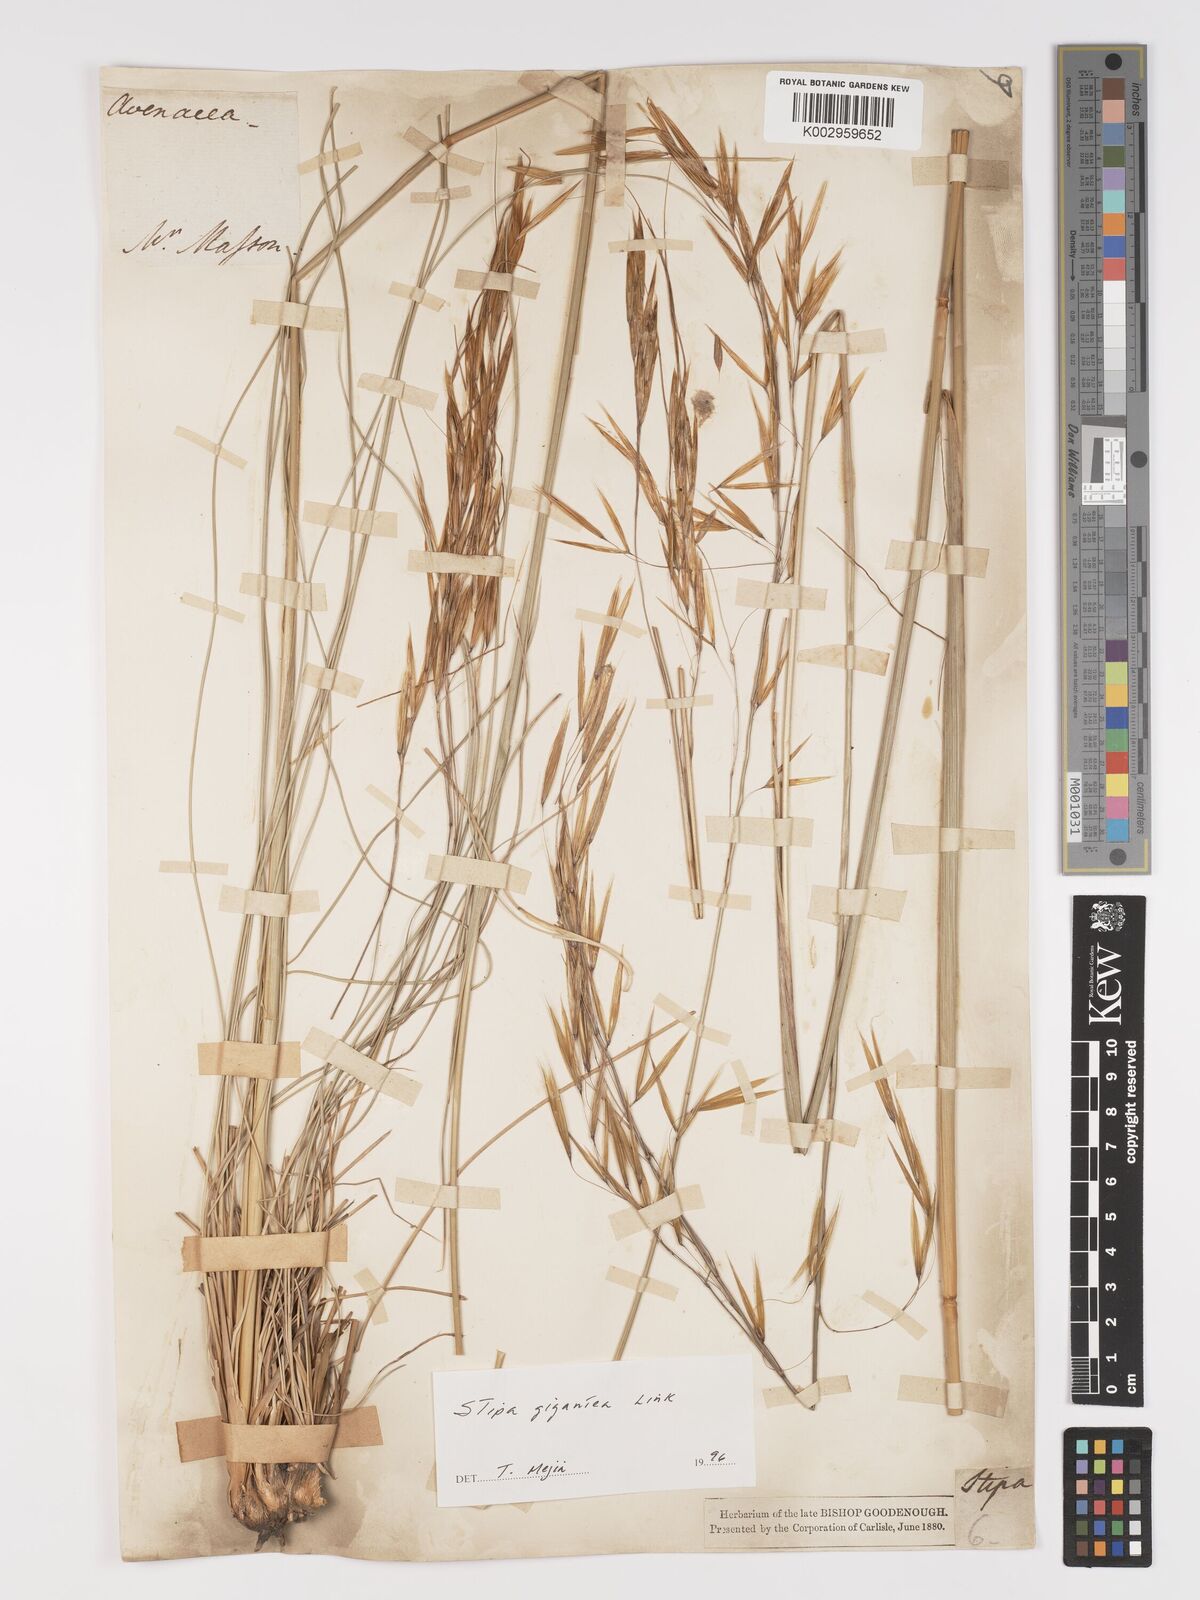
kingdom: Plantae
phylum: Tracheophyta
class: Liliopsida
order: Poales
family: Poaceae
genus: Celtica
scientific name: Celtica gigantea
